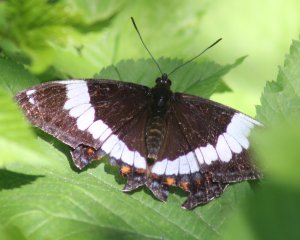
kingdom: Animalia
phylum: Arthropoda
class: Insecta
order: Lepidoptera
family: Nymphalidae
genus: Limenitis
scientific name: Limenitis arthemis
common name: Red-spotted Admiral
